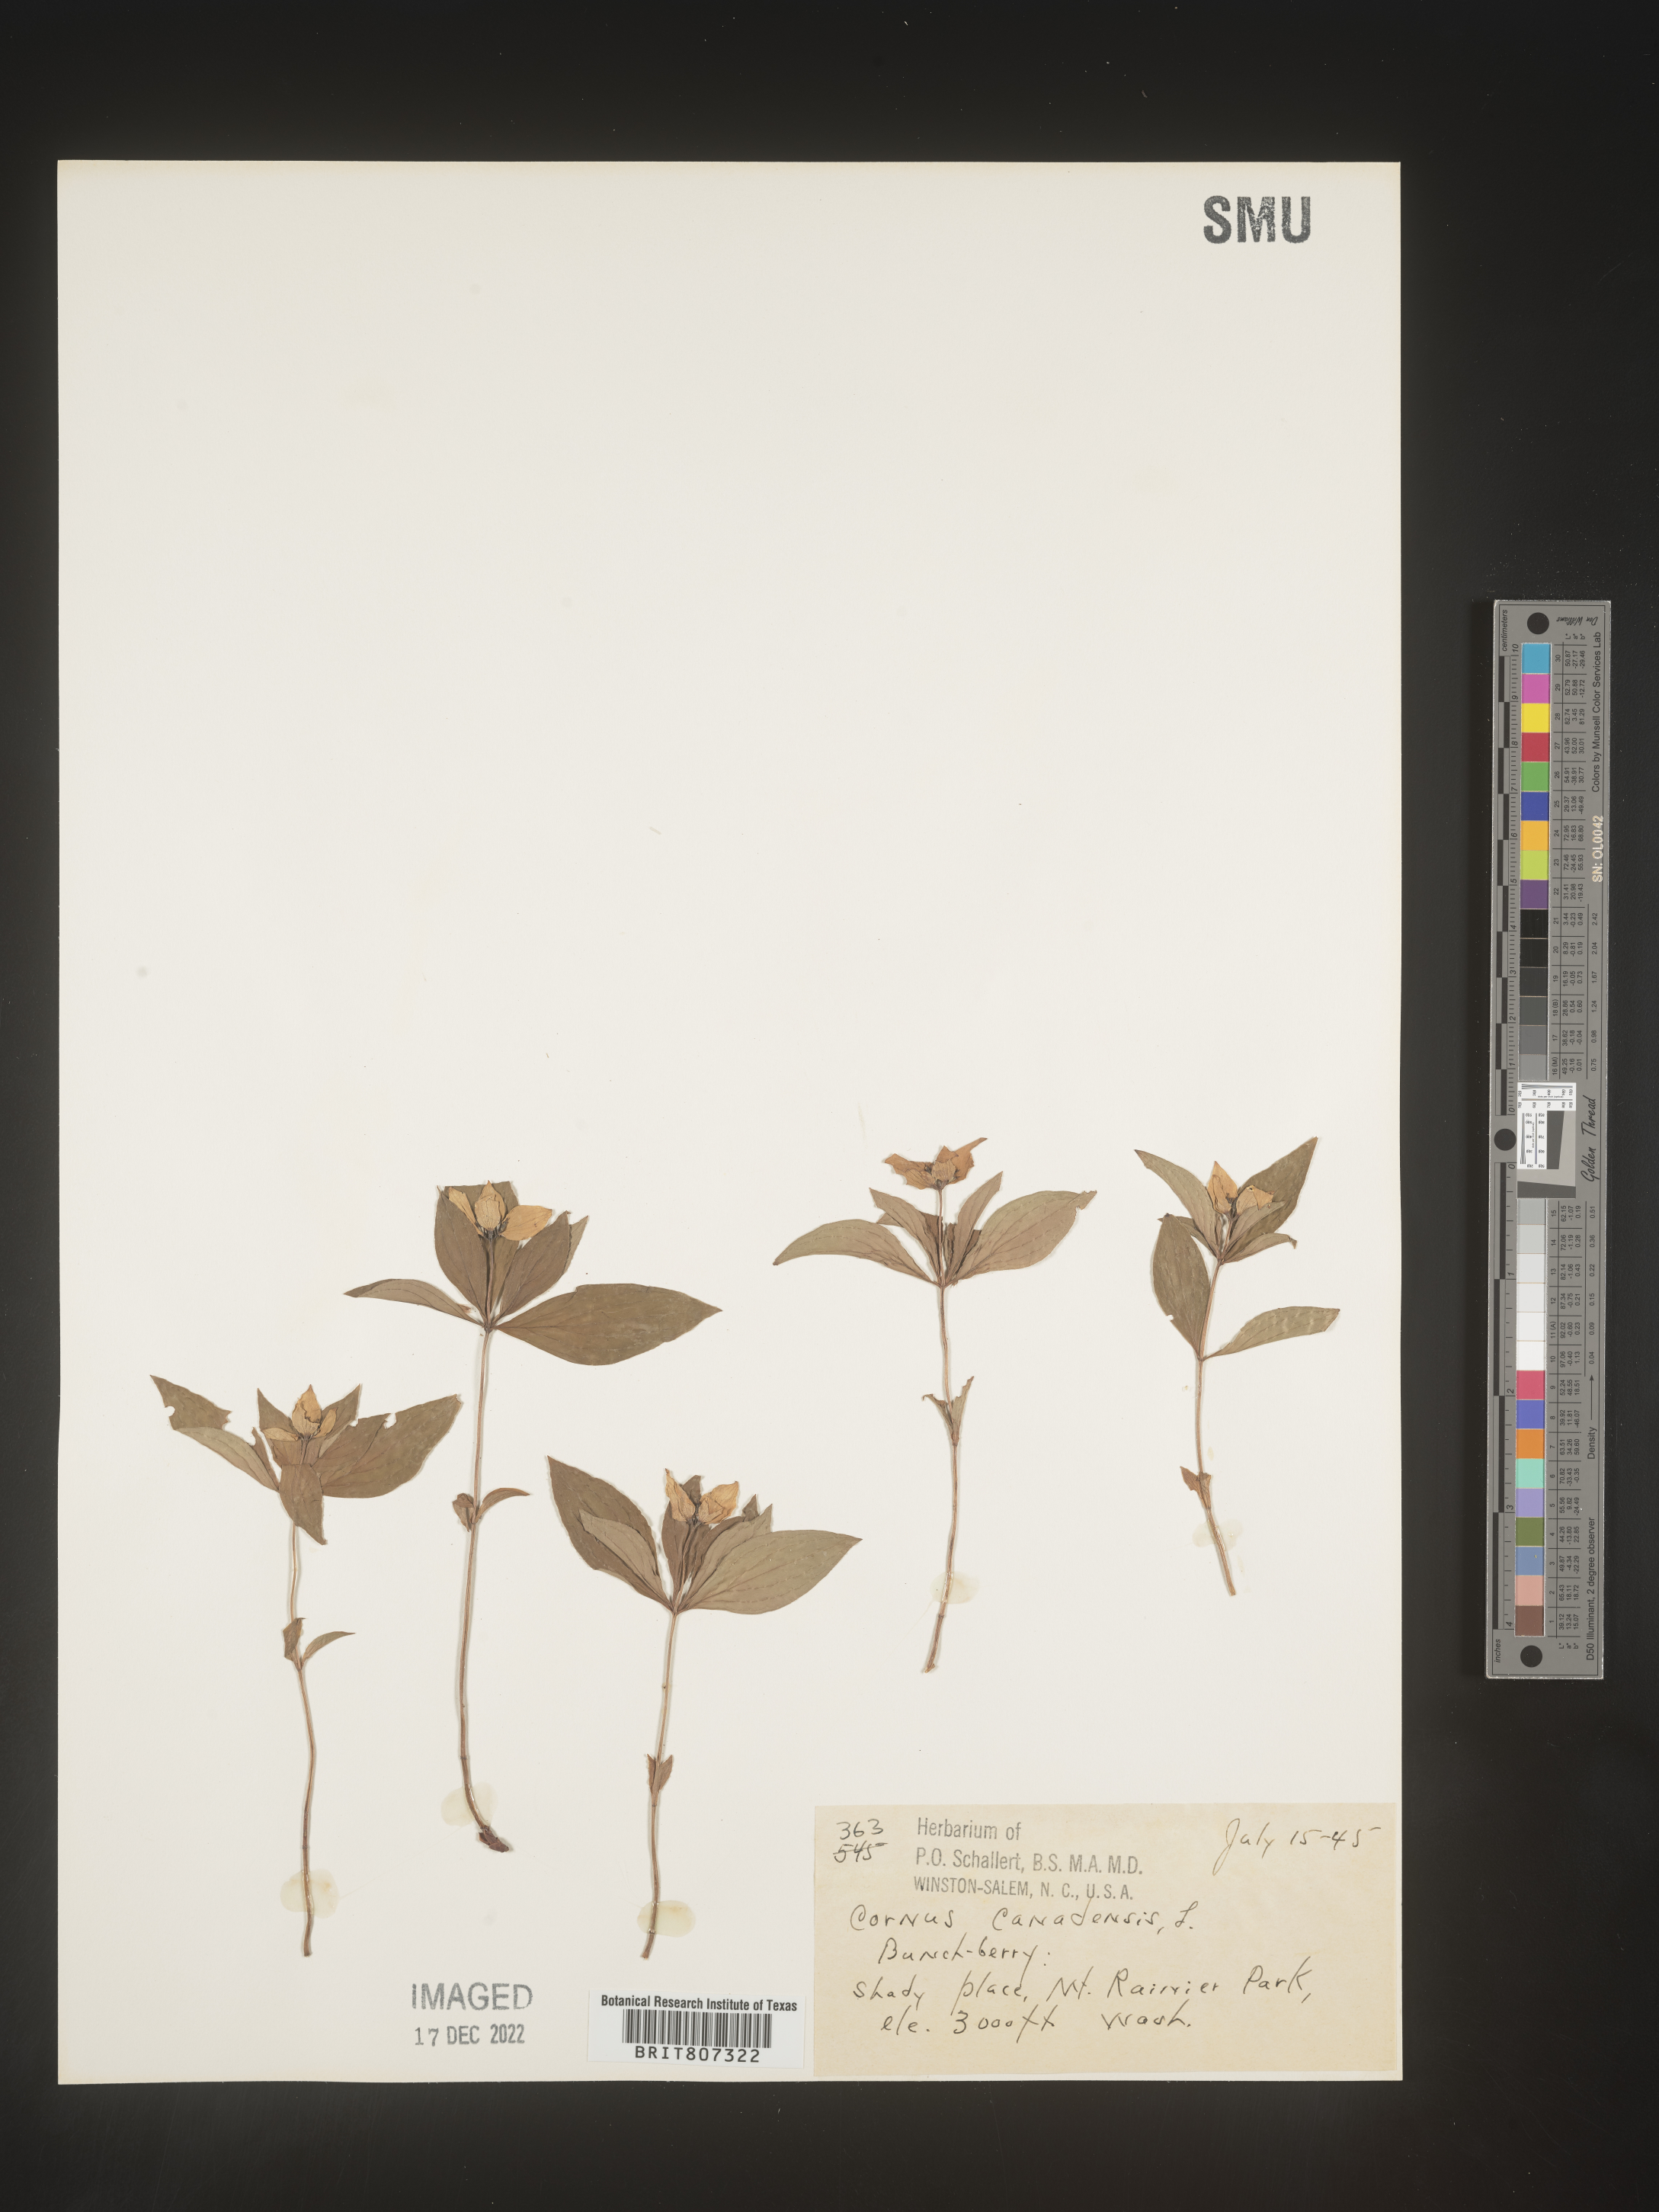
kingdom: Plantae
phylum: Tracheophyta
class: Magnoliopsida
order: Cornales
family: Cornaceae
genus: Cornus
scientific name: Cornus canadensis
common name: Creeping dogwood
